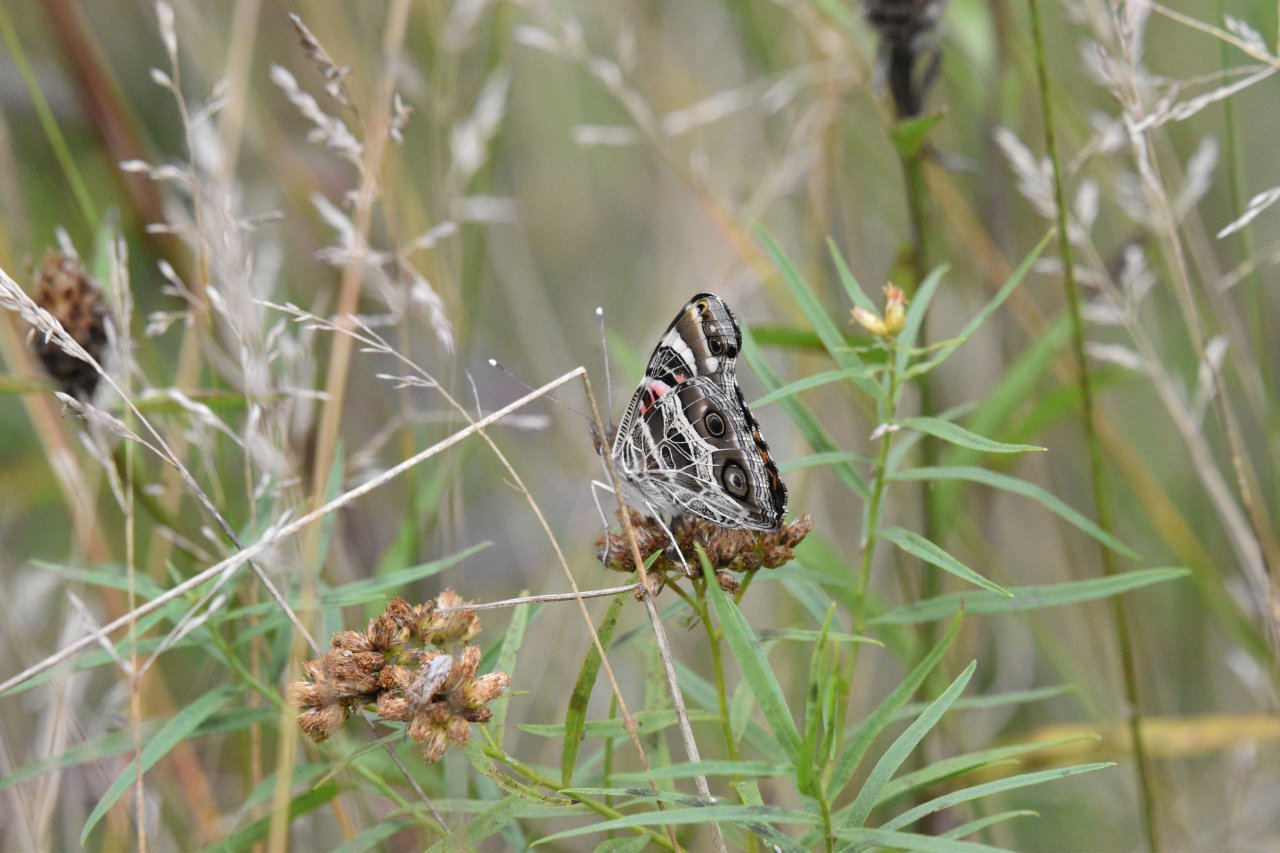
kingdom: Animalia
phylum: Arthropoda
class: Insecta
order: Lepidoptera
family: Nymphalidae
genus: Vanessa
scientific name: Vanessa virginiensis
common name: American Lady
